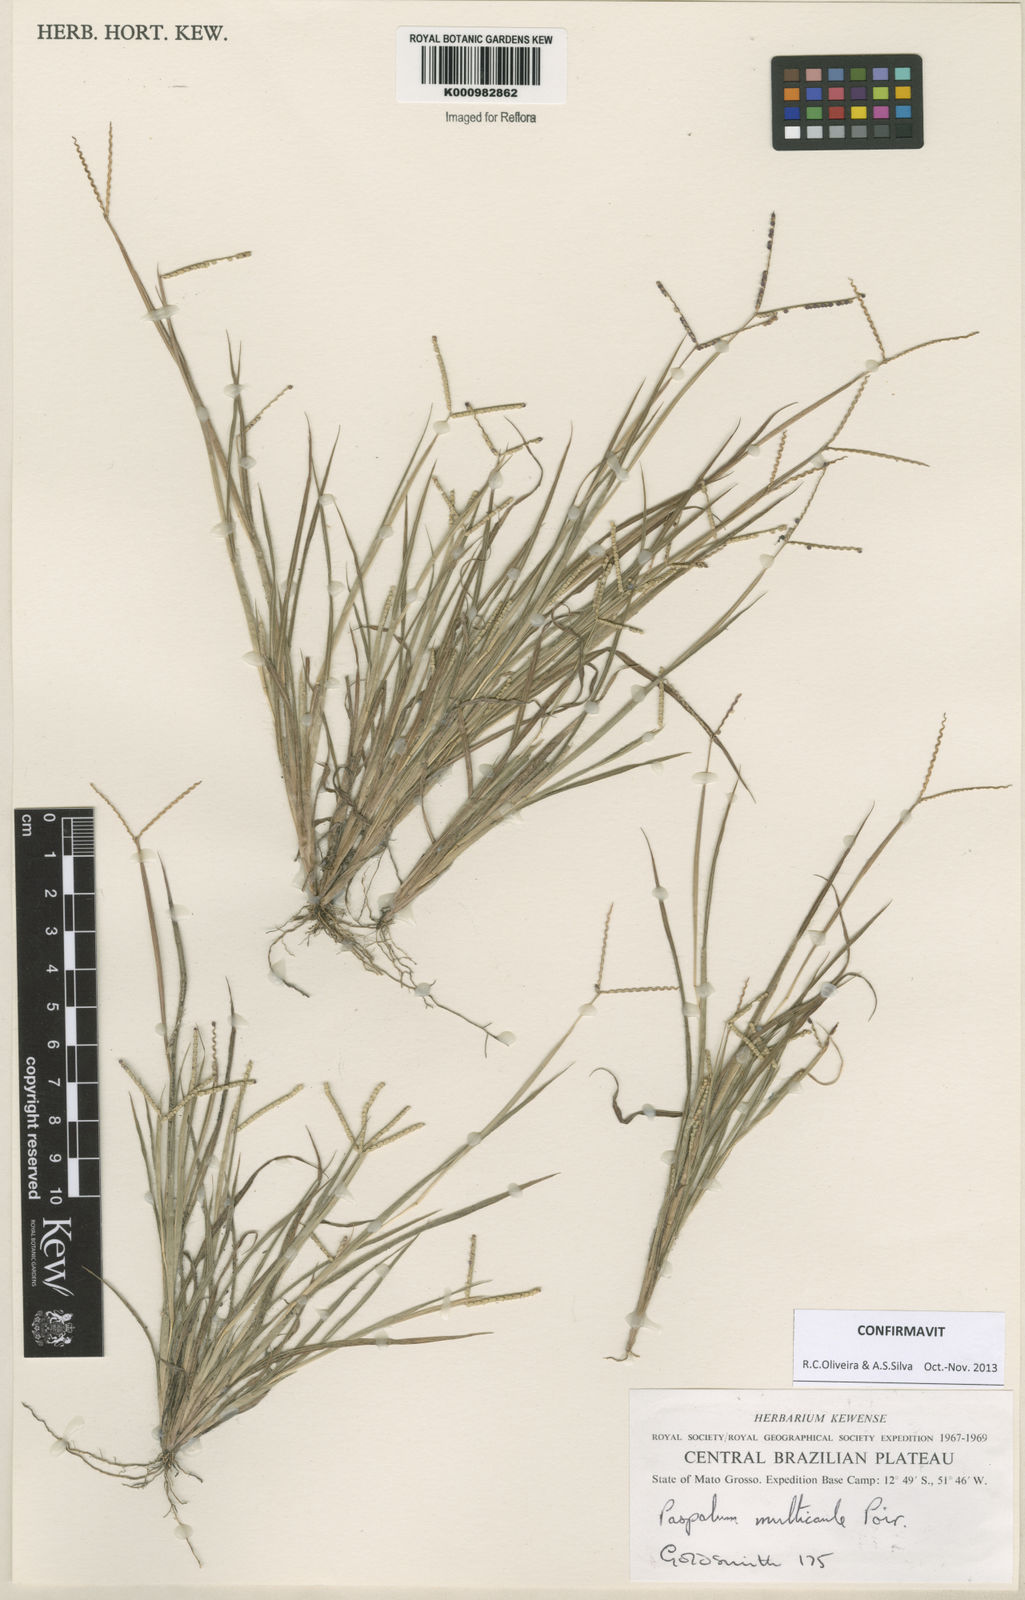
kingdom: Plantae
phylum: Tracheophyta
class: Liliopsida
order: Poales
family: Poaceae
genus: Paspalum
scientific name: Paspalum multicaule
